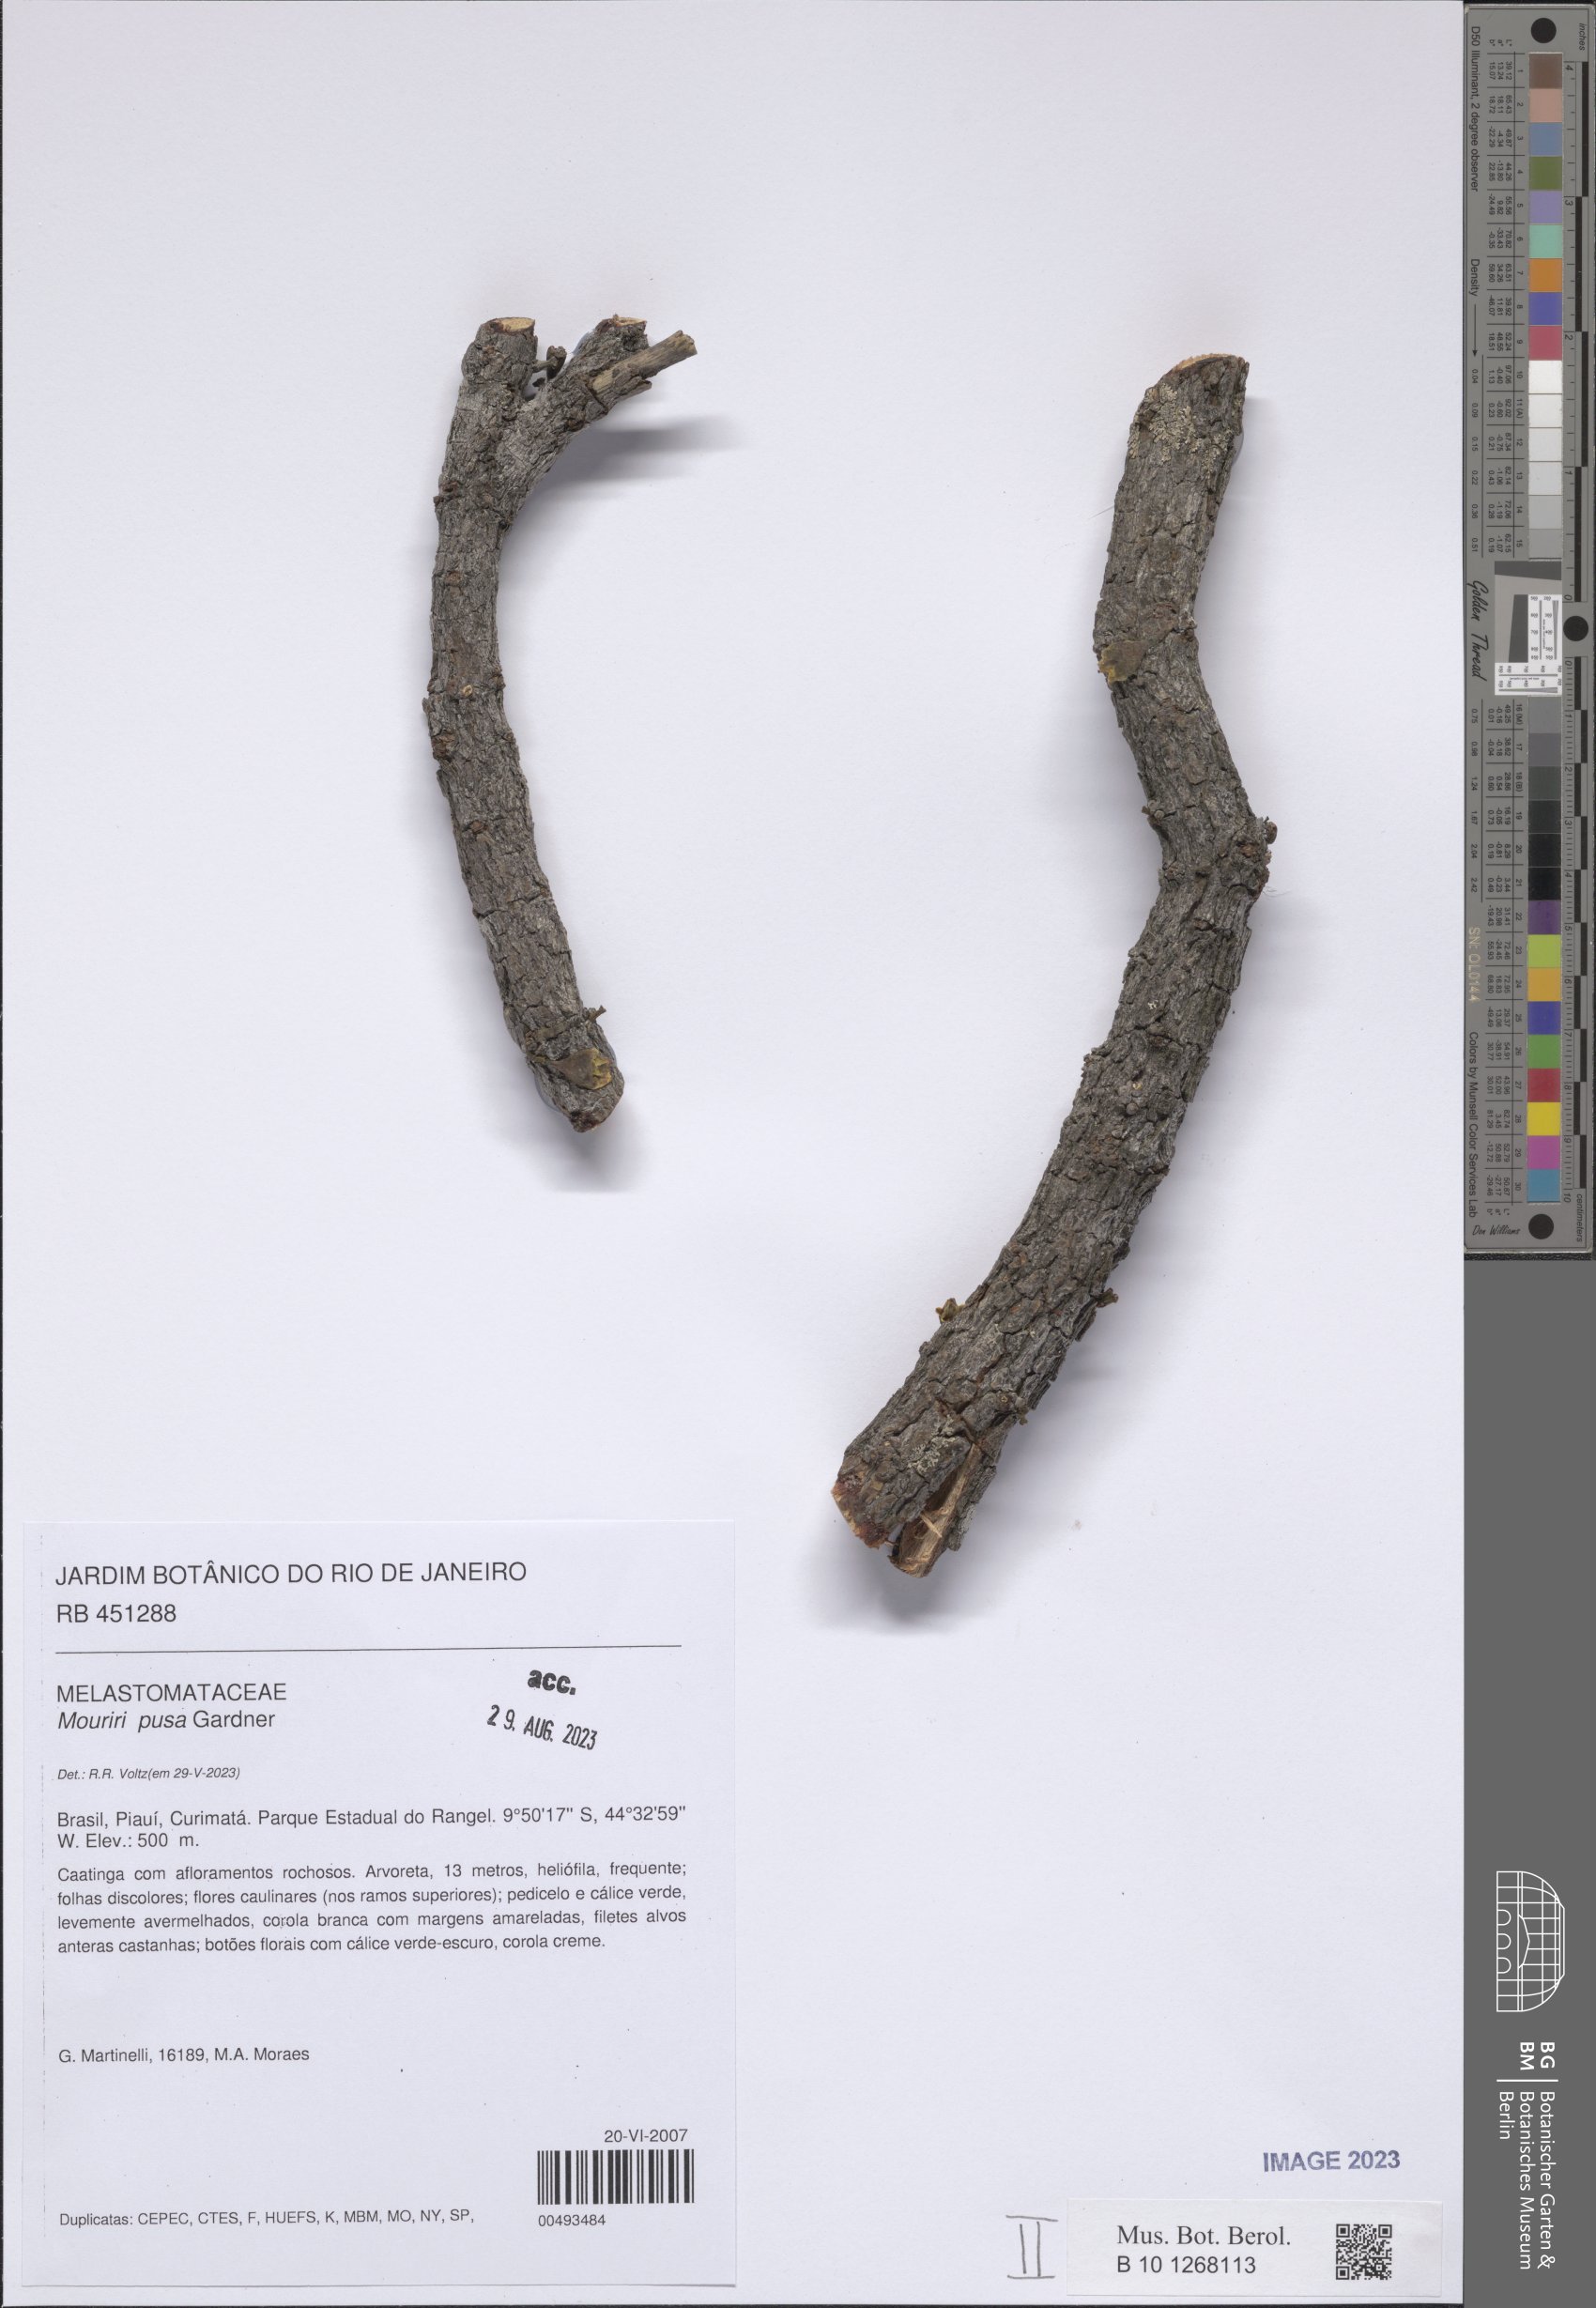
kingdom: Plantae
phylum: Tracheophyta
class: Magnoliopsida
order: Myrtales
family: Melastomataceae
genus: Mouriri
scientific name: Mouriri pusa
